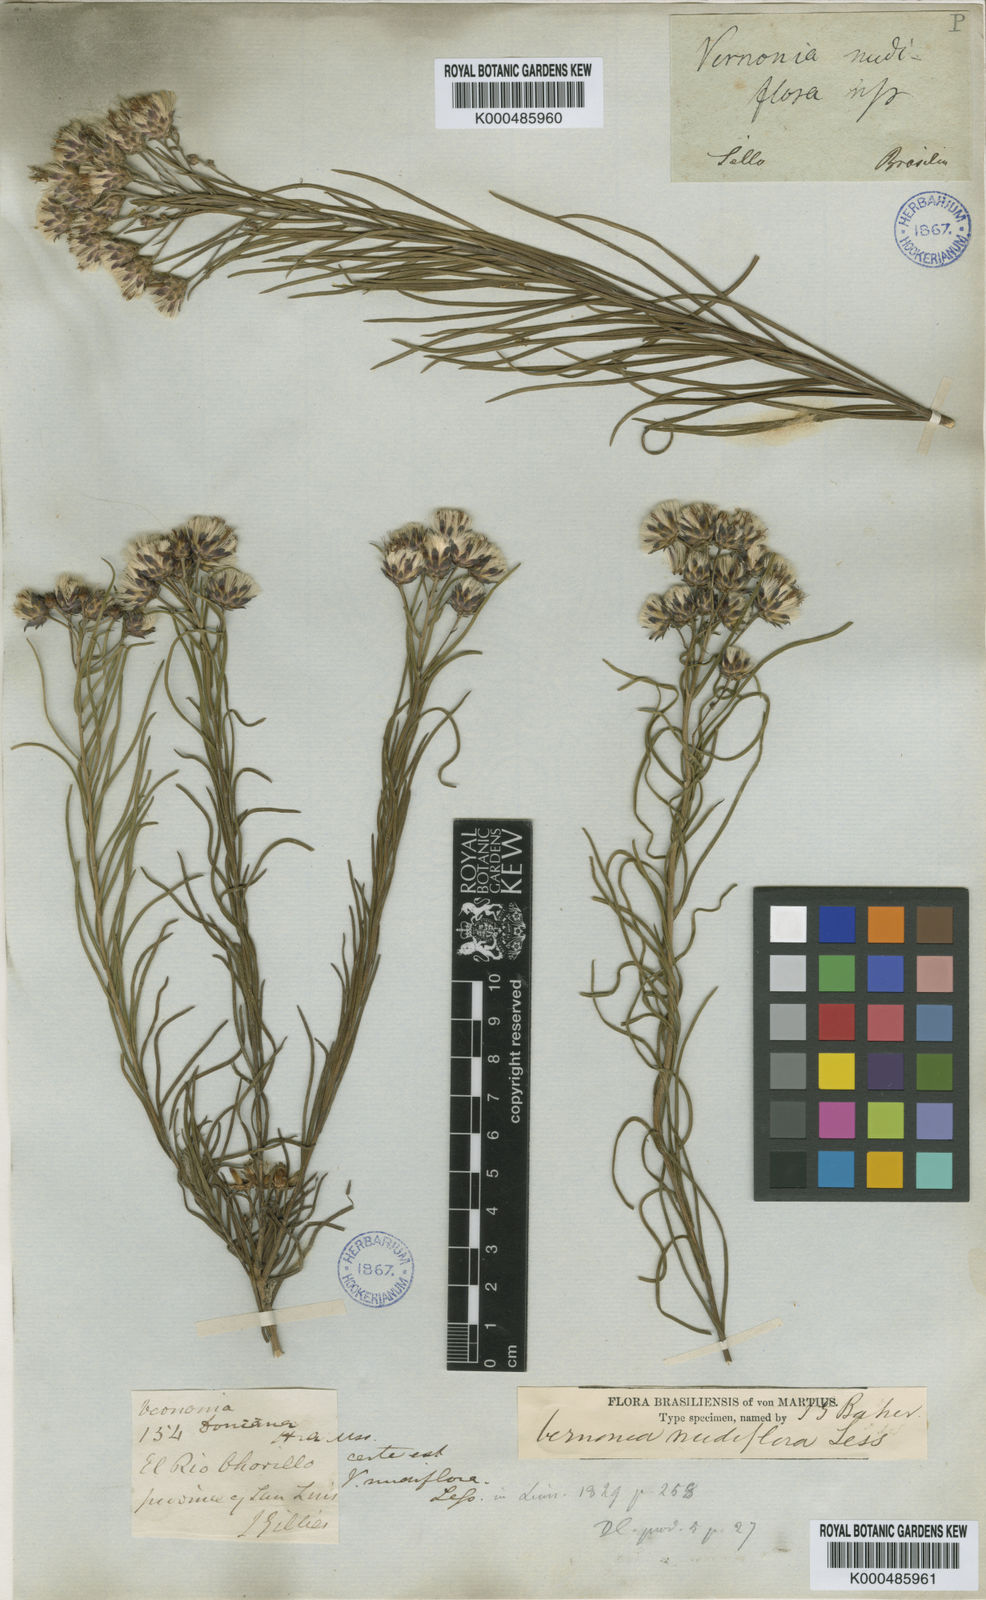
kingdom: Plantae
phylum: Tracheophyta
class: Magnoliopsida
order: Asterales
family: Asteraceae
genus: Vernonanthura
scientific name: Vernonanthura nudiflora
